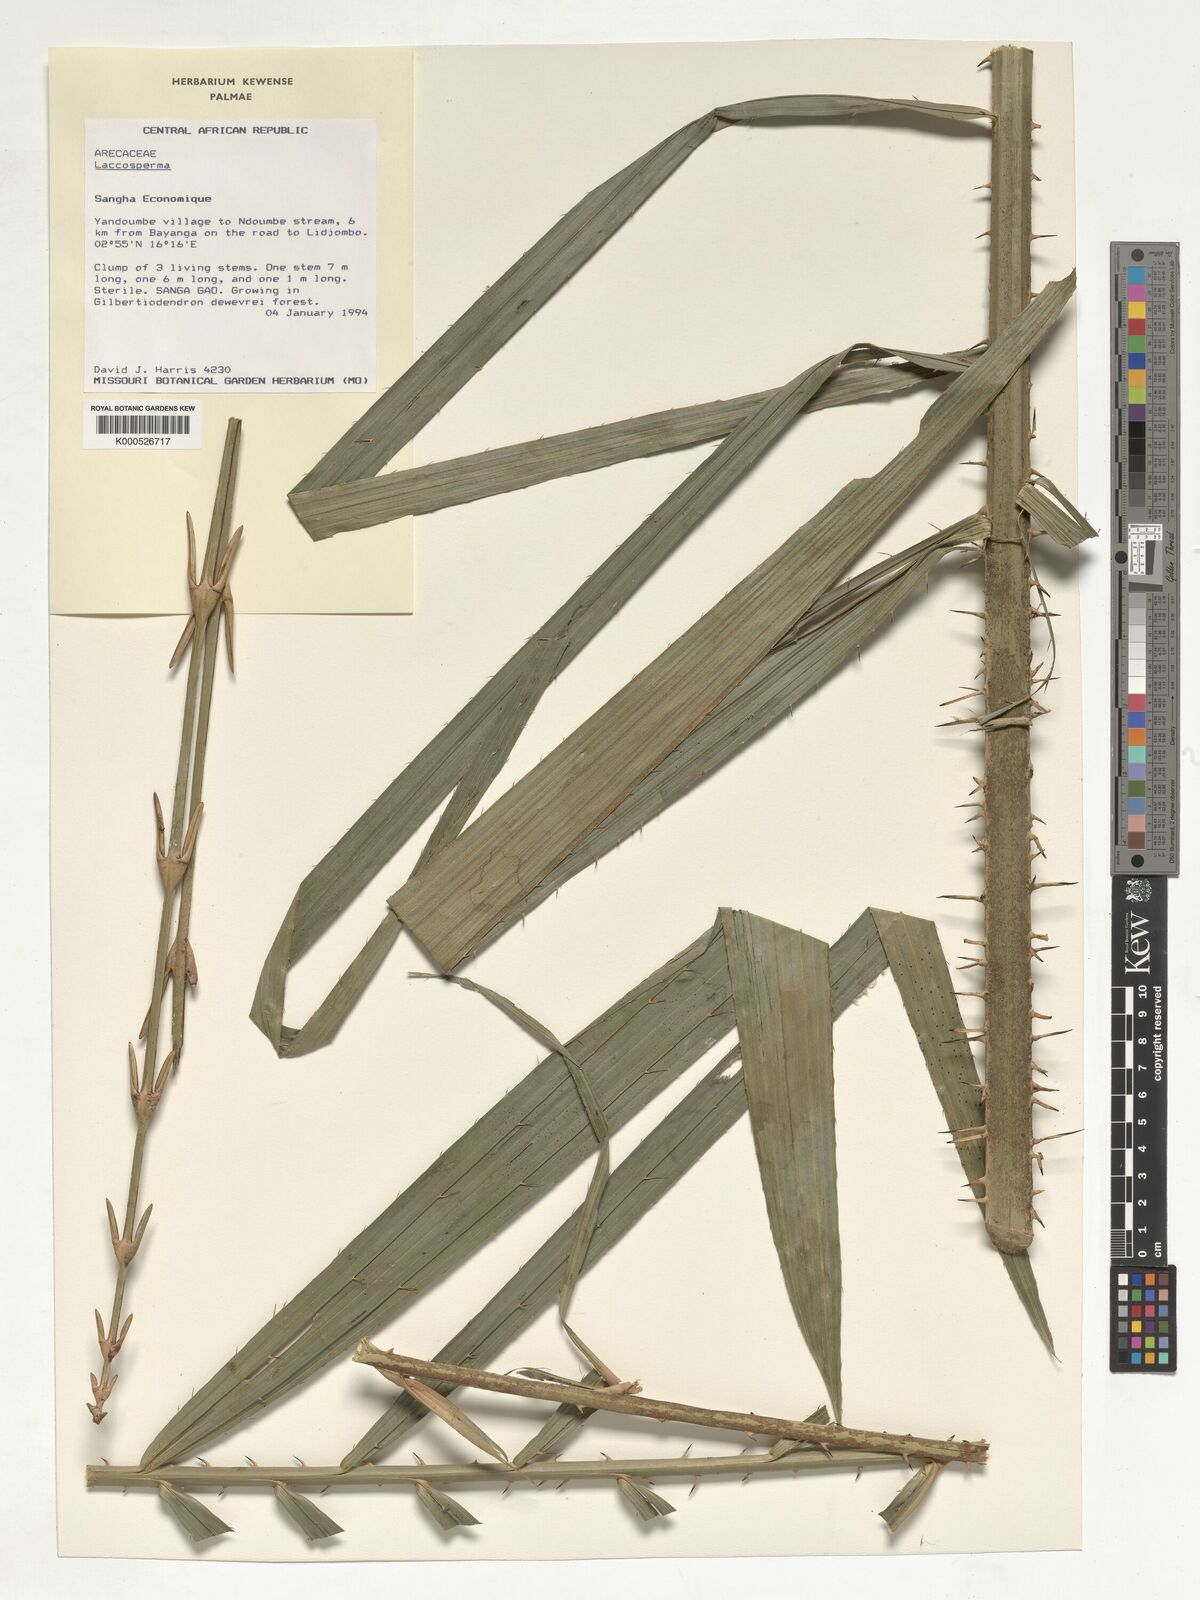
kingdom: Plantae
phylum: Tracheophyta
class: Liliopsida
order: Arecales
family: Arecaceae
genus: Laccosperma
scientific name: Laccosperma
